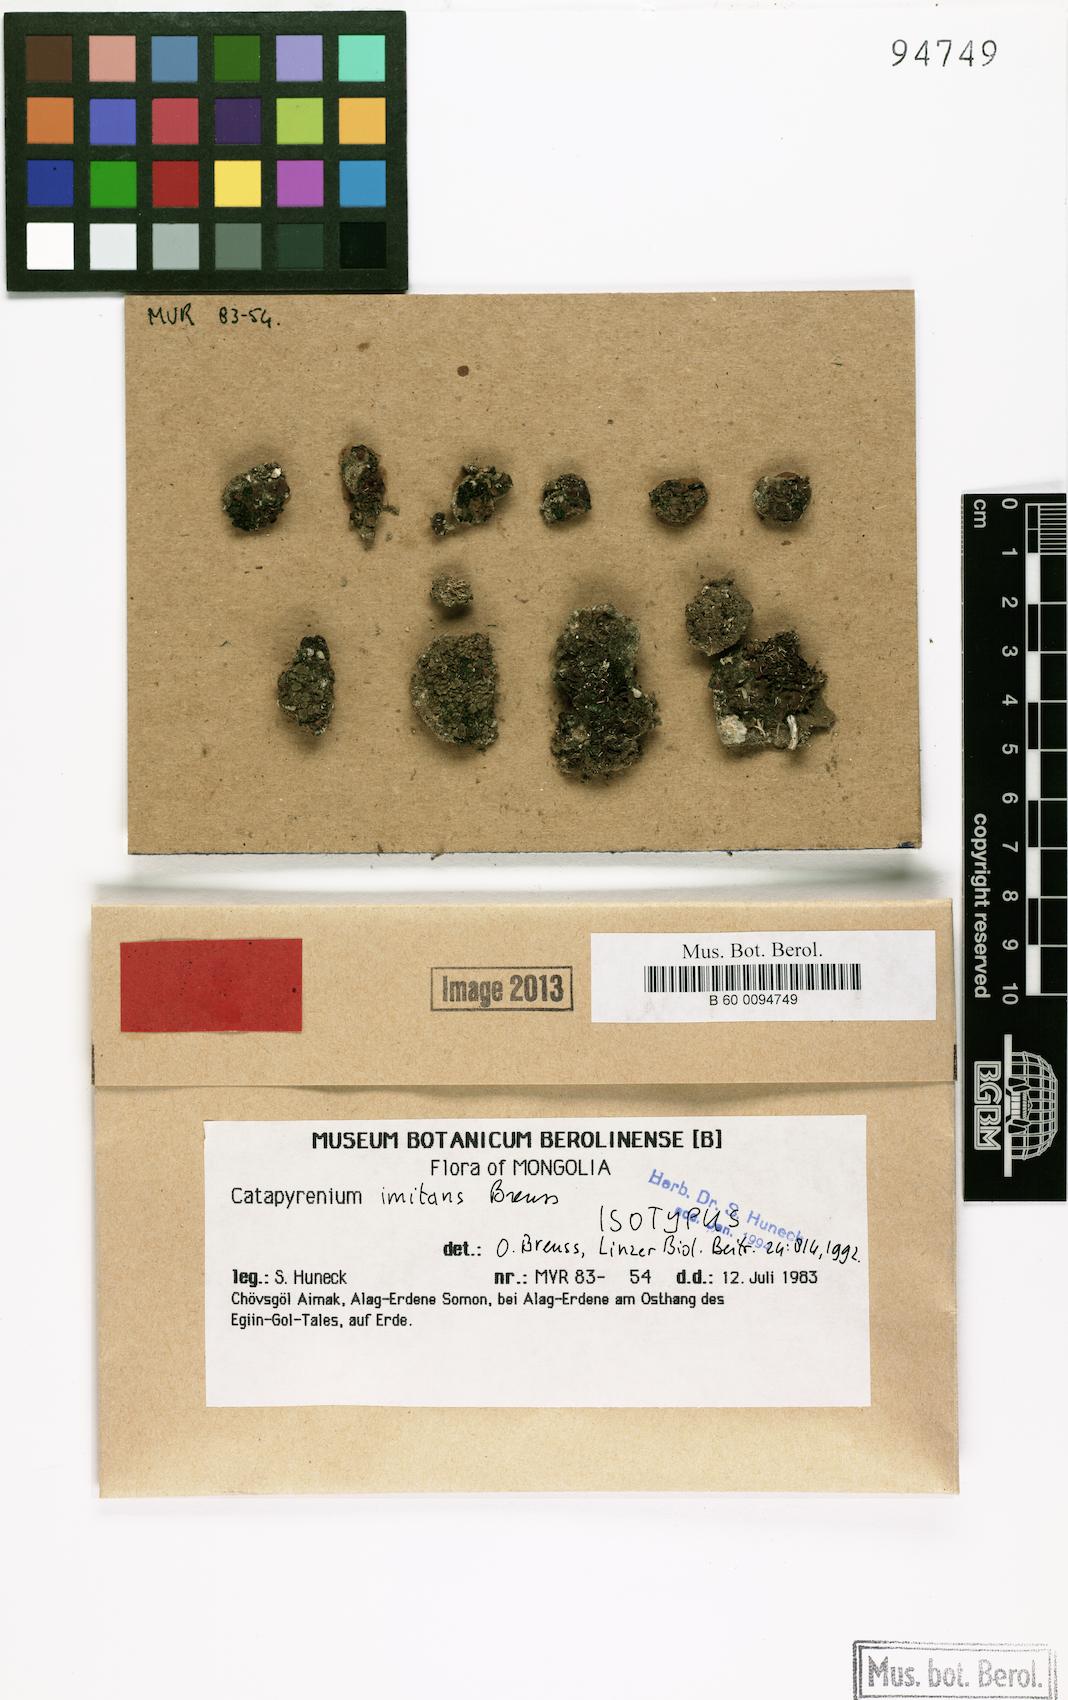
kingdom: Fungi
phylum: Ascomycota
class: Eurotiomycetes
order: Verrucariales
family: Verrucariaceae
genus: Clavascidium
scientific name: Clavascidium imitans
